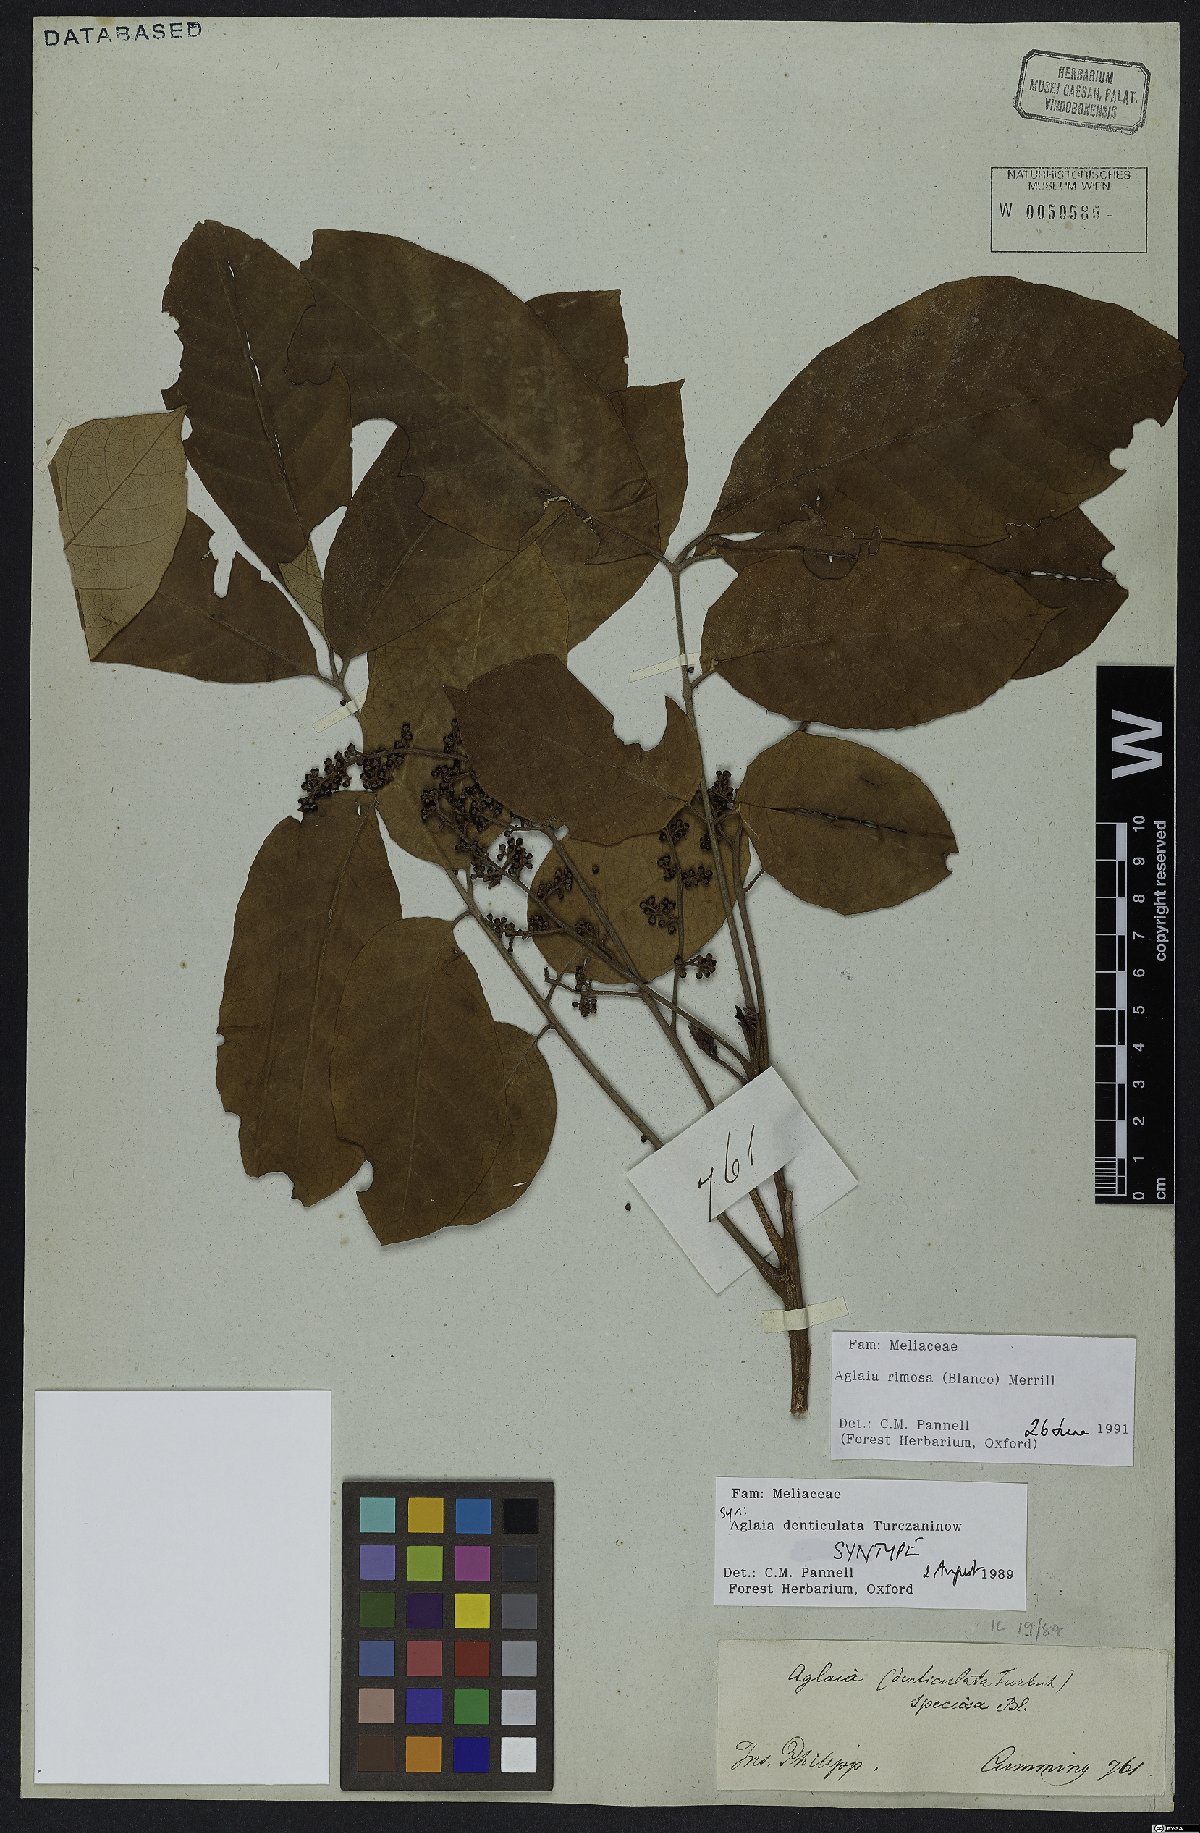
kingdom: Plantae
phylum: Tracheophyta
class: Magnoliopsida
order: Sapindales
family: Meliaceae
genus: Aglaia
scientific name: Aglaia rimosa
